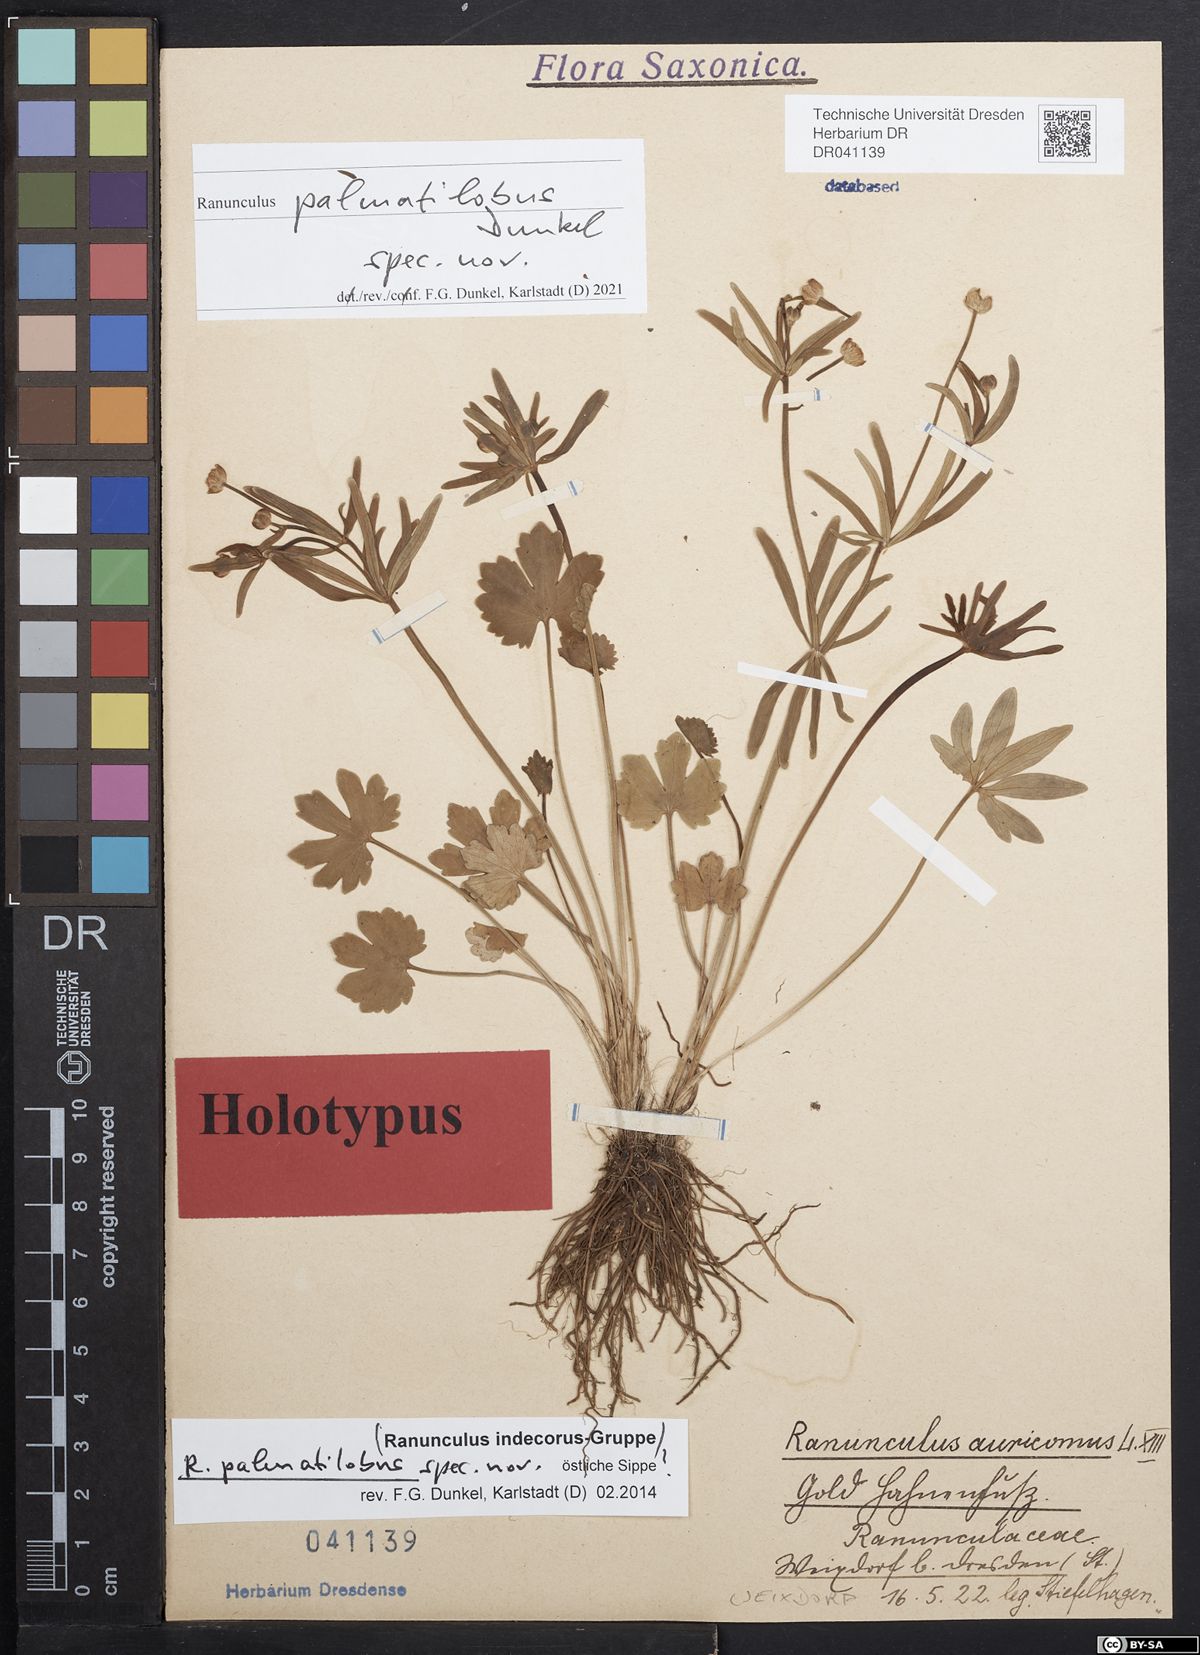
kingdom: Plantae
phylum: Tracheophyta
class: Magnoliopsida
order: Ranunculales
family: Ranunculaceae
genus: Ranunculus
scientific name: Ranunculus palmatilobus
